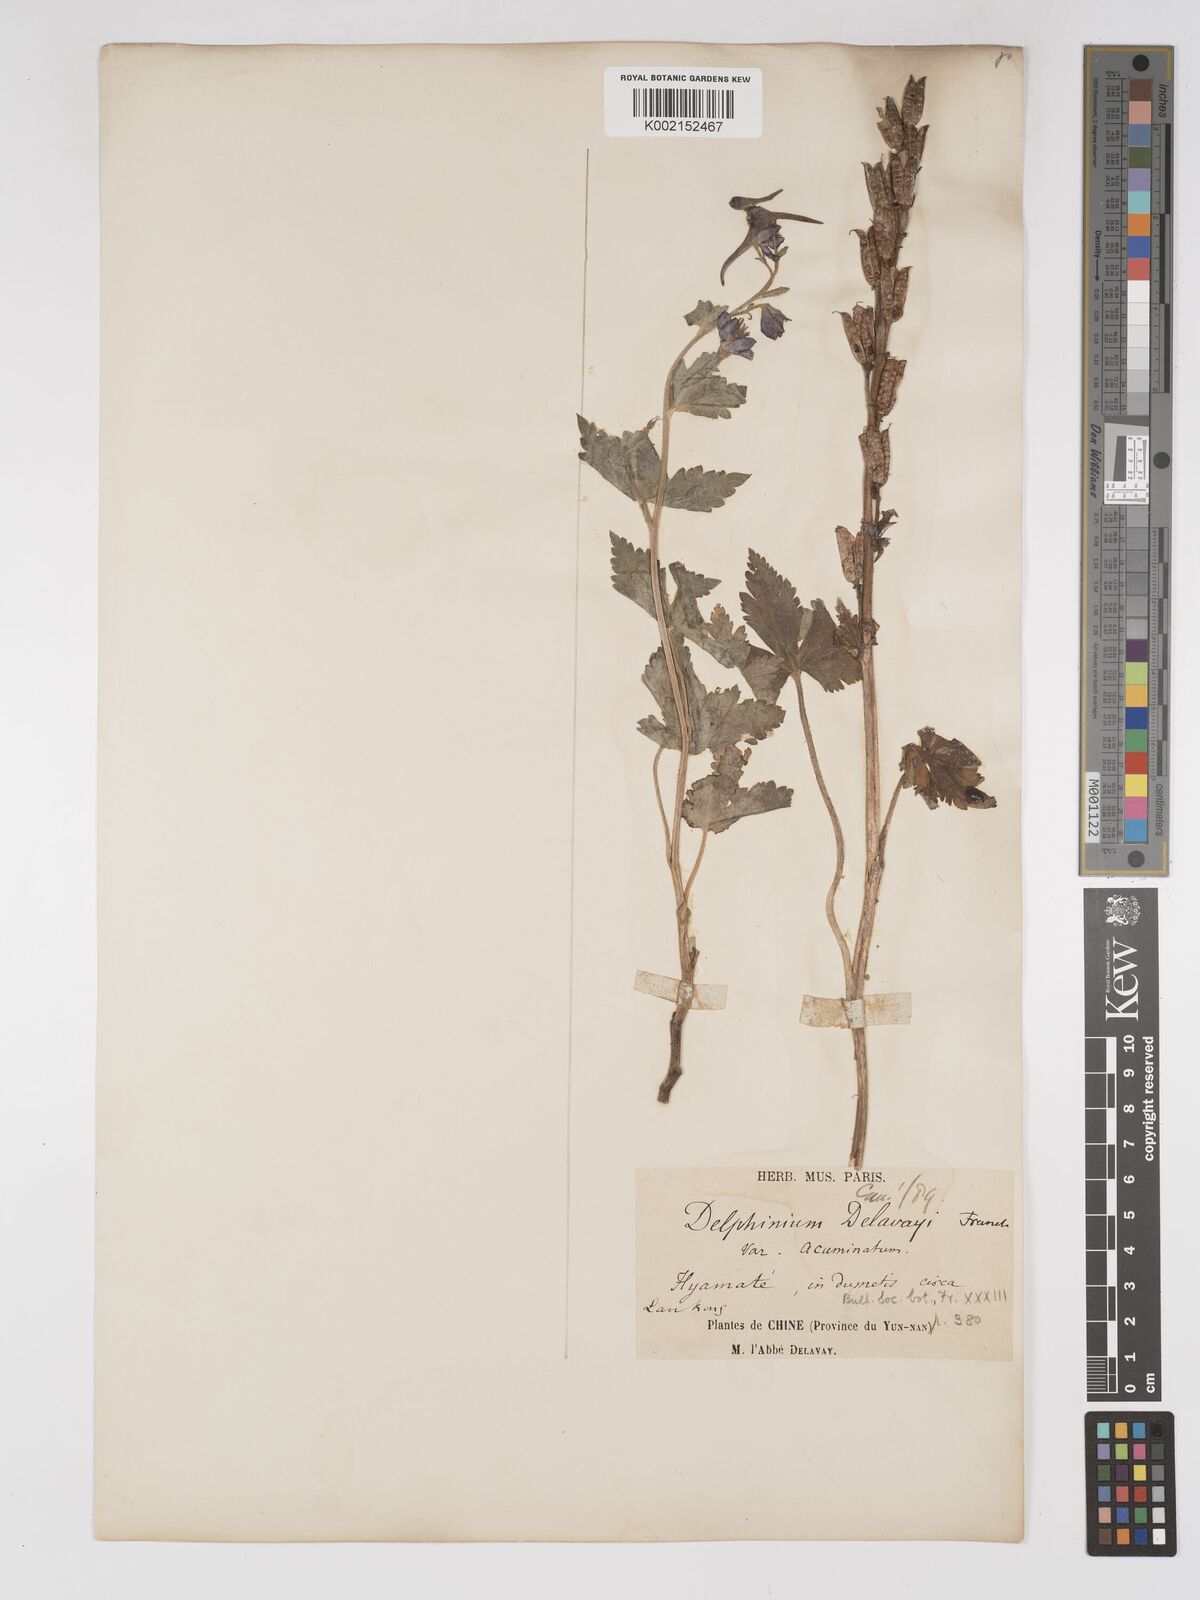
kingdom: Plantae
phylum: Tracheophyta
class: Magnoliopsida
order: Ranunculales
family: Ranunculaceae
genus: Delphinium
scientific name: Delphinium delavayi
